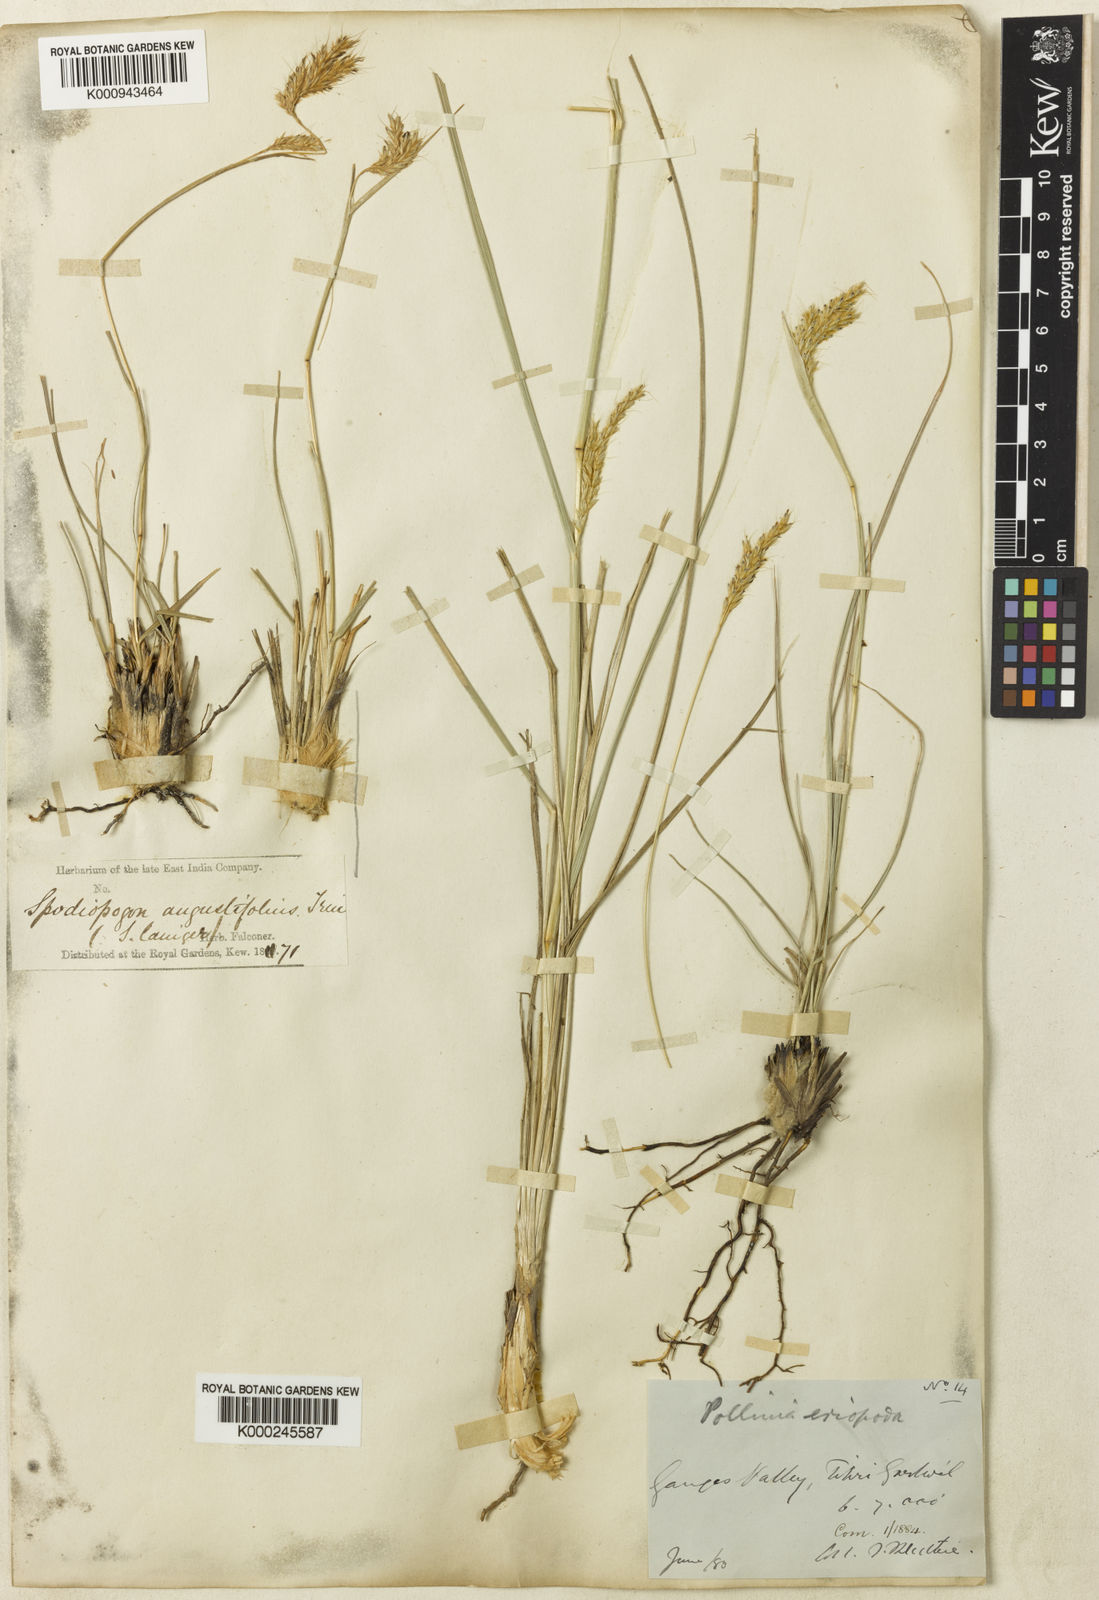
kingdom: Plantae
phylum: Tracheophyta
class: Liliopsida
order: Poales
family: Poaceae
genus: Eulaliopsis
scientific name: Eulaliopsis binata
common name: Baib grass
